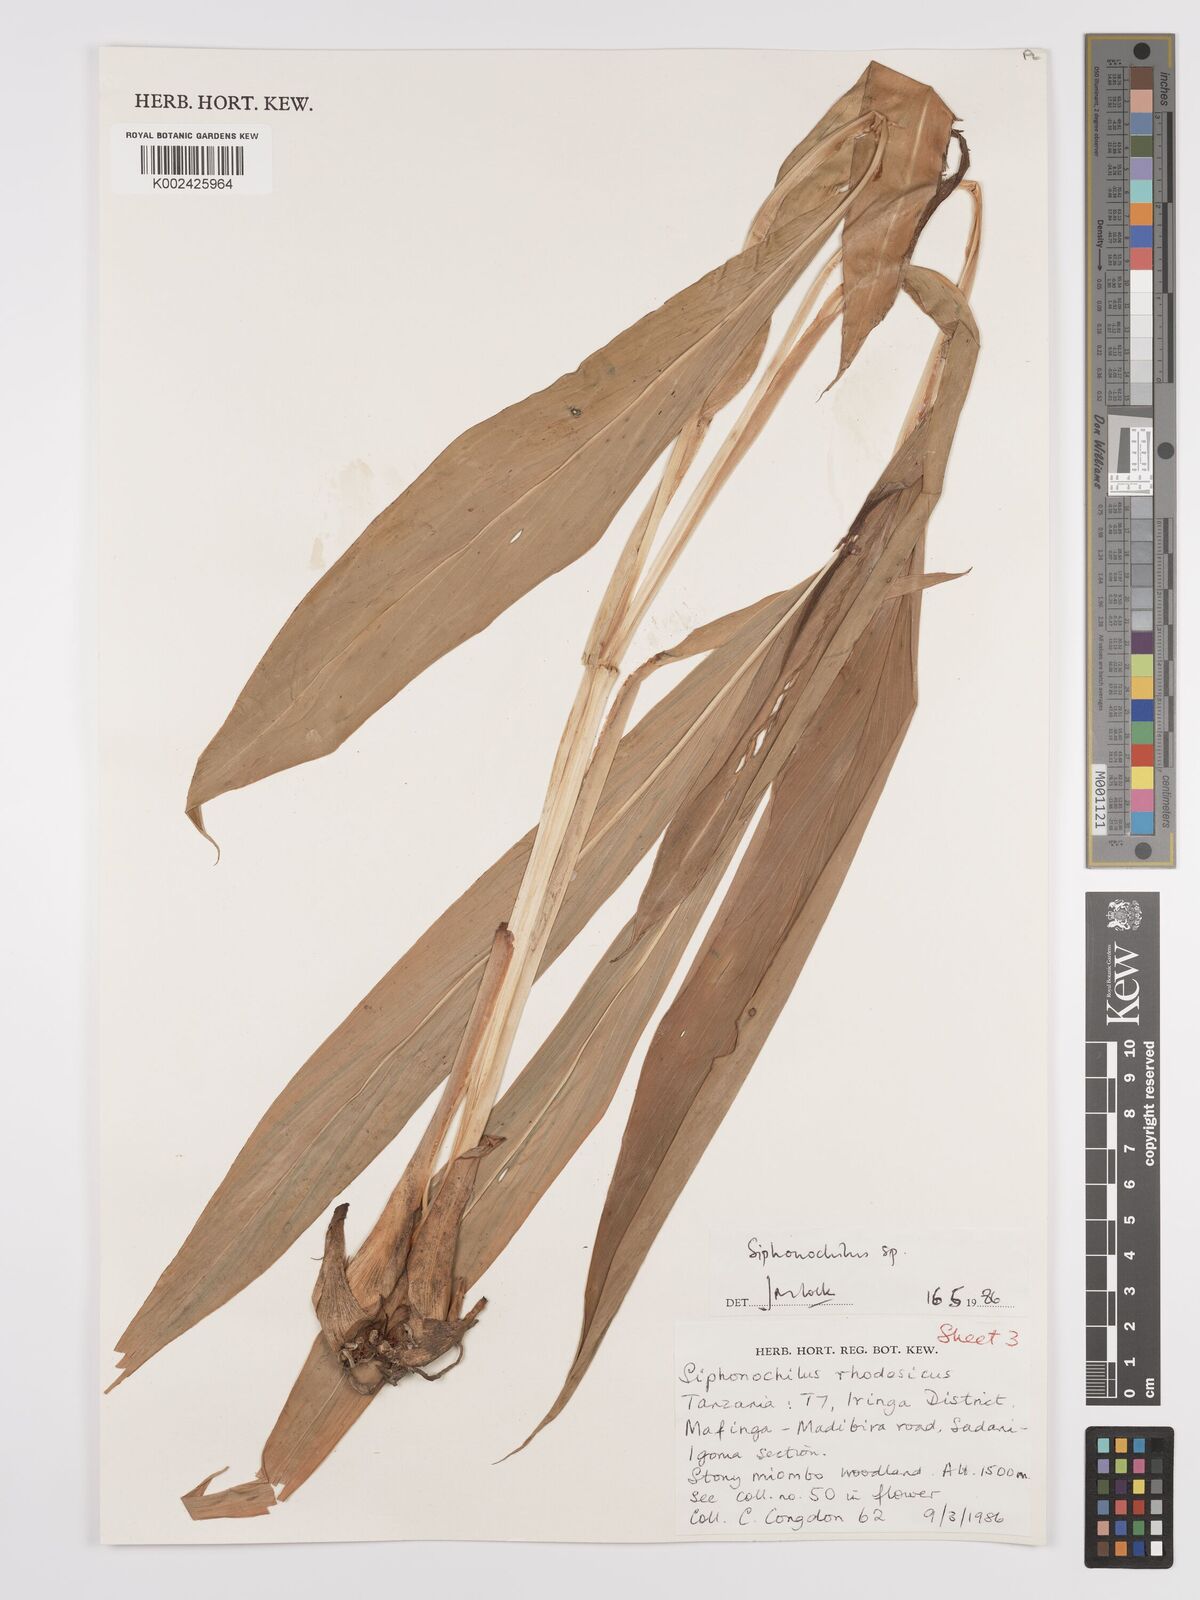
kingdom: Plantae
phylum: Tracheophyta
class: Liliopsida
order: Zingiberales
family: Zingiberaceae
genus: Siphonochilus
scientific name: Siphonochilus
